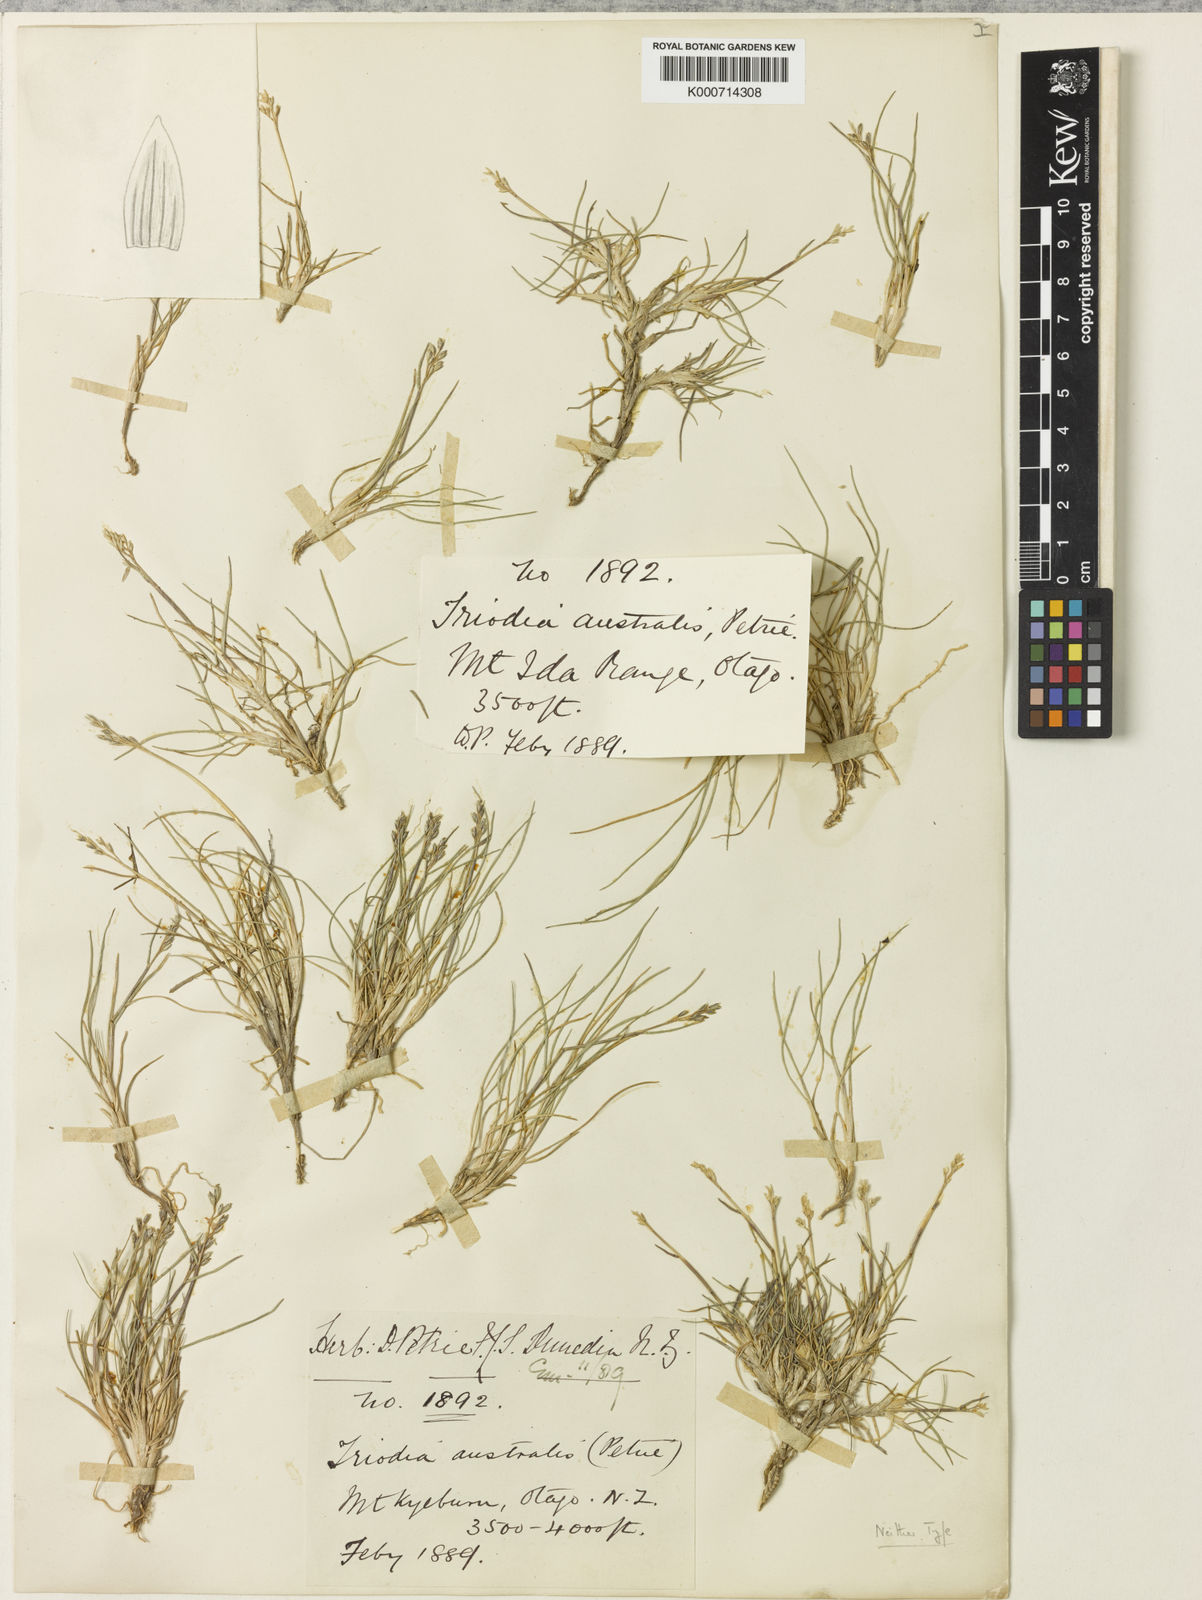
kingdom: Plantae
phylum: Tracheophyta
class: Liliopsida
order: Poales
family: Poaceae
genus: Rytidosperma
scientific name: Rytidosperma australe
